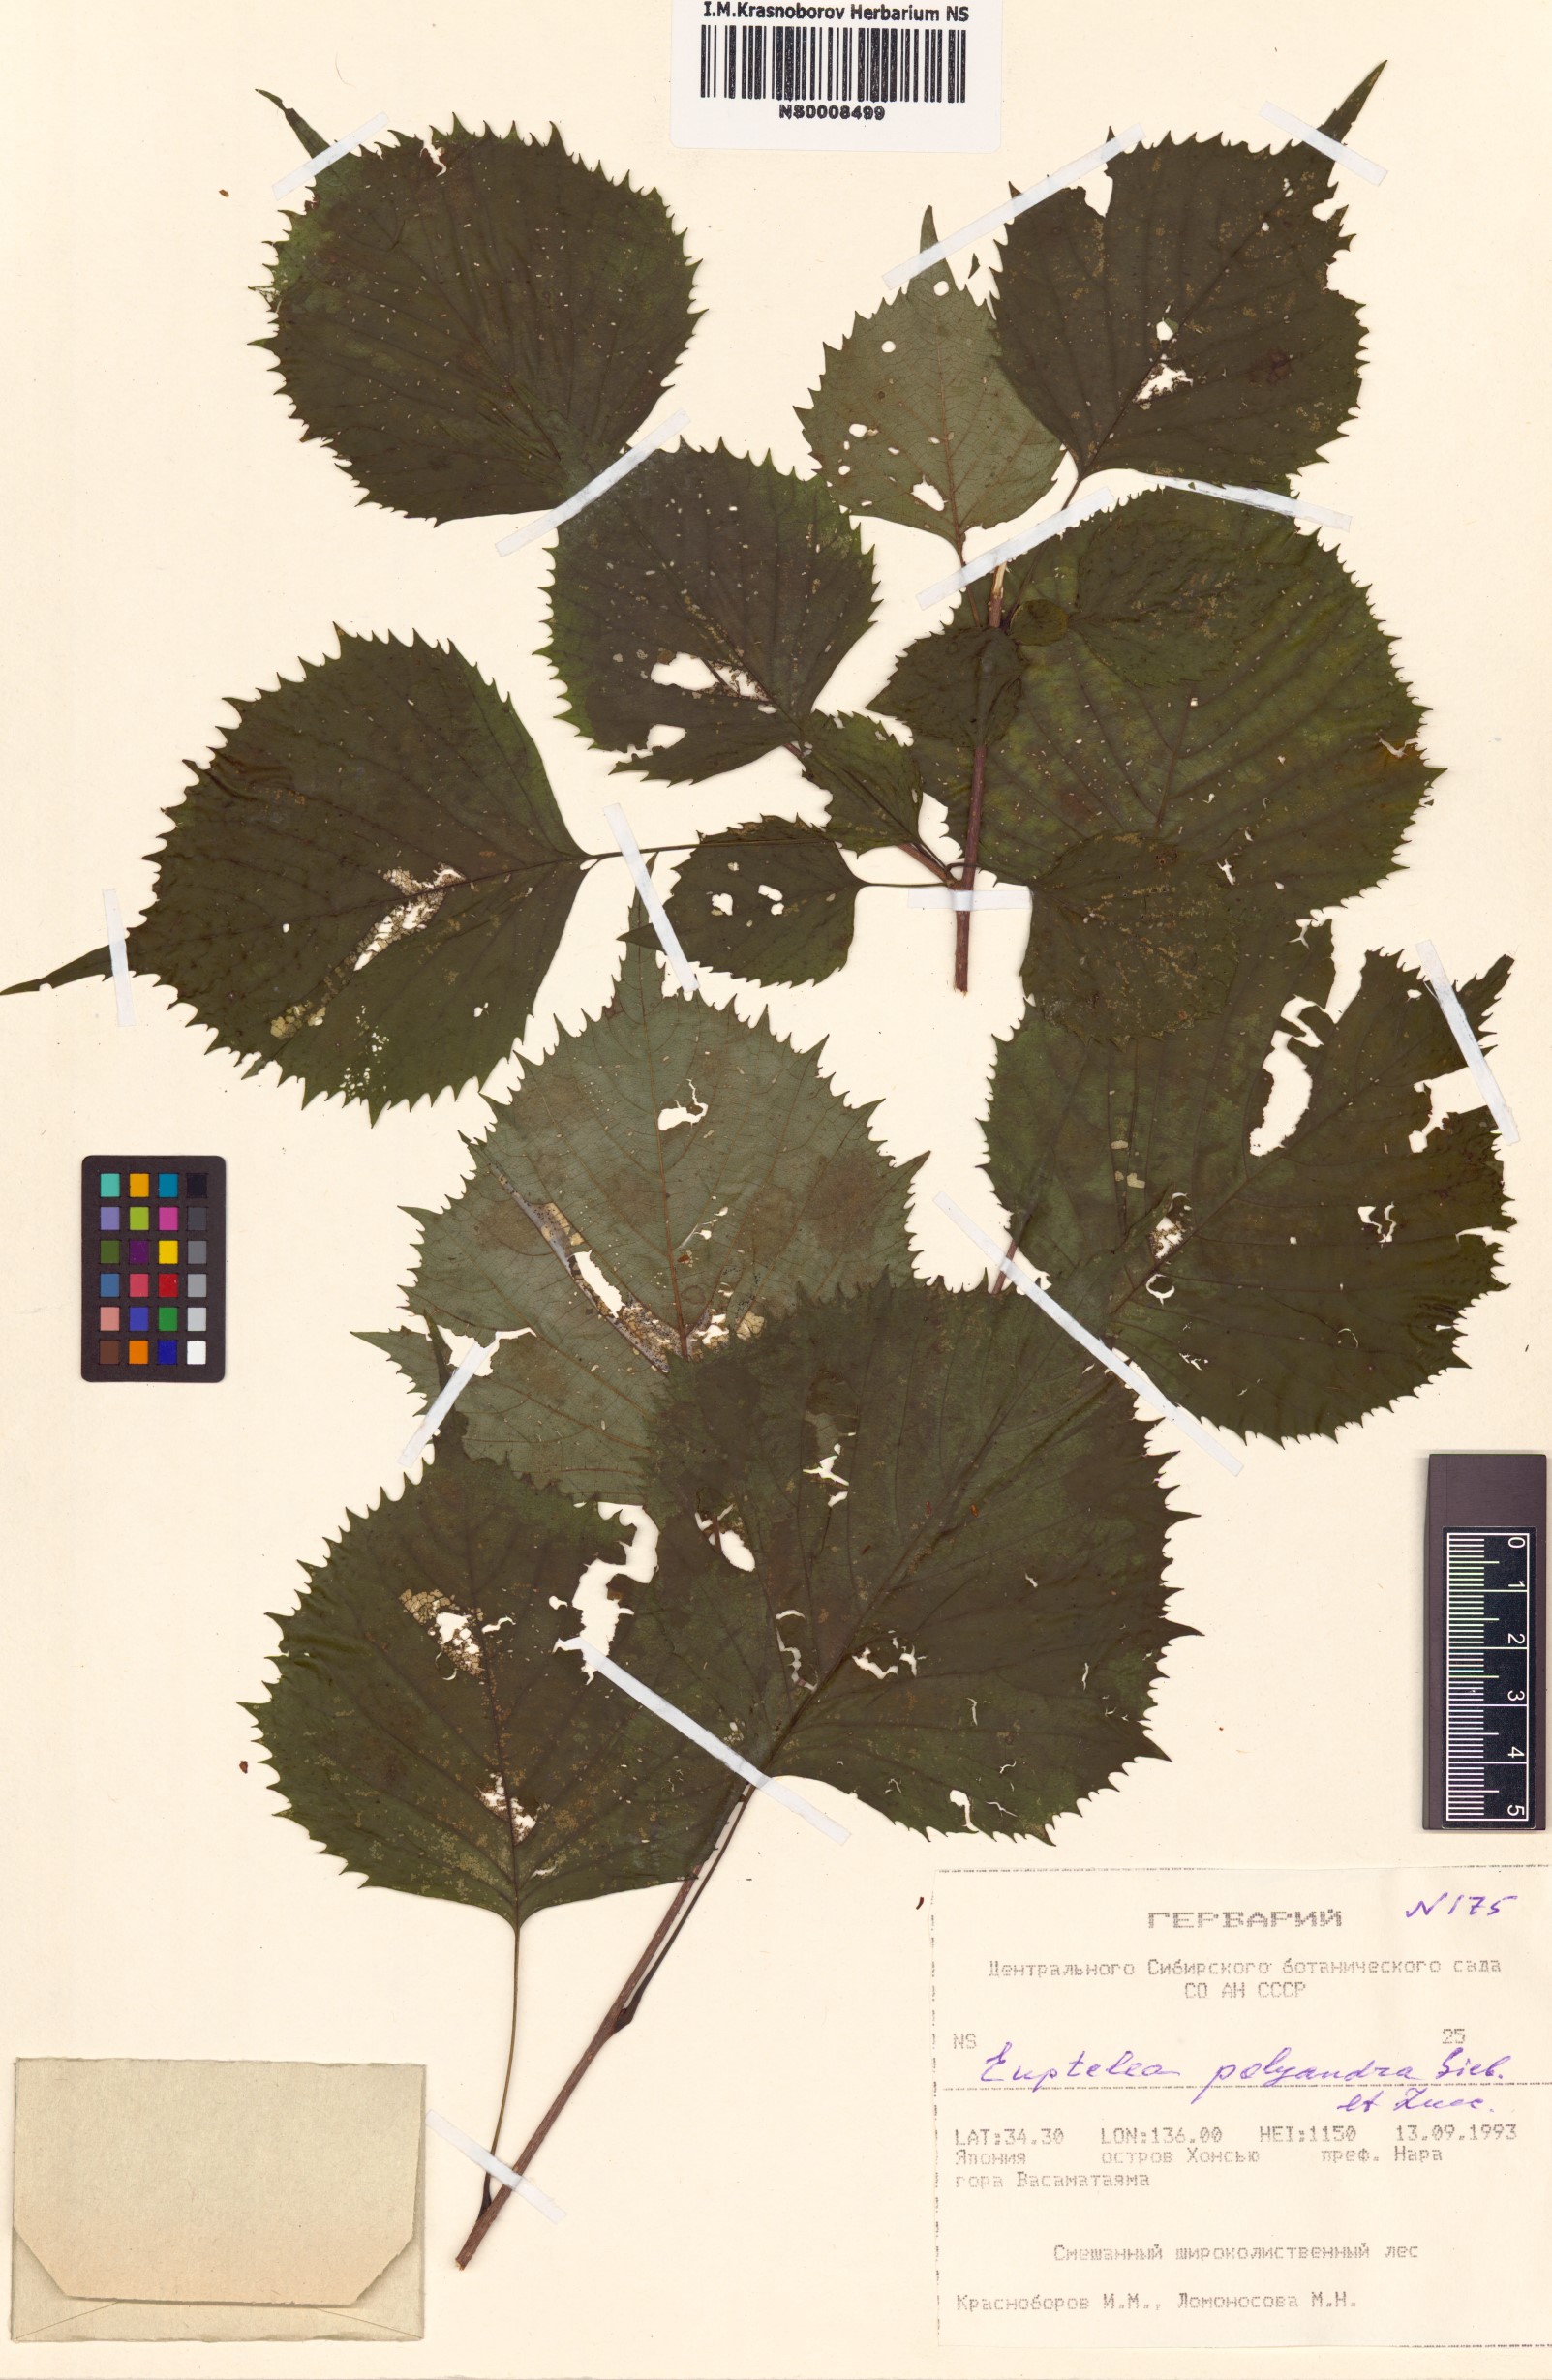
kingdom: Plantae
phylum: Tracheophyta
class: Magnoliopsida
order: Ranunculales
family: Eupteleaceae
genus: Euptelea
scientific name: Euptelea polyandra
